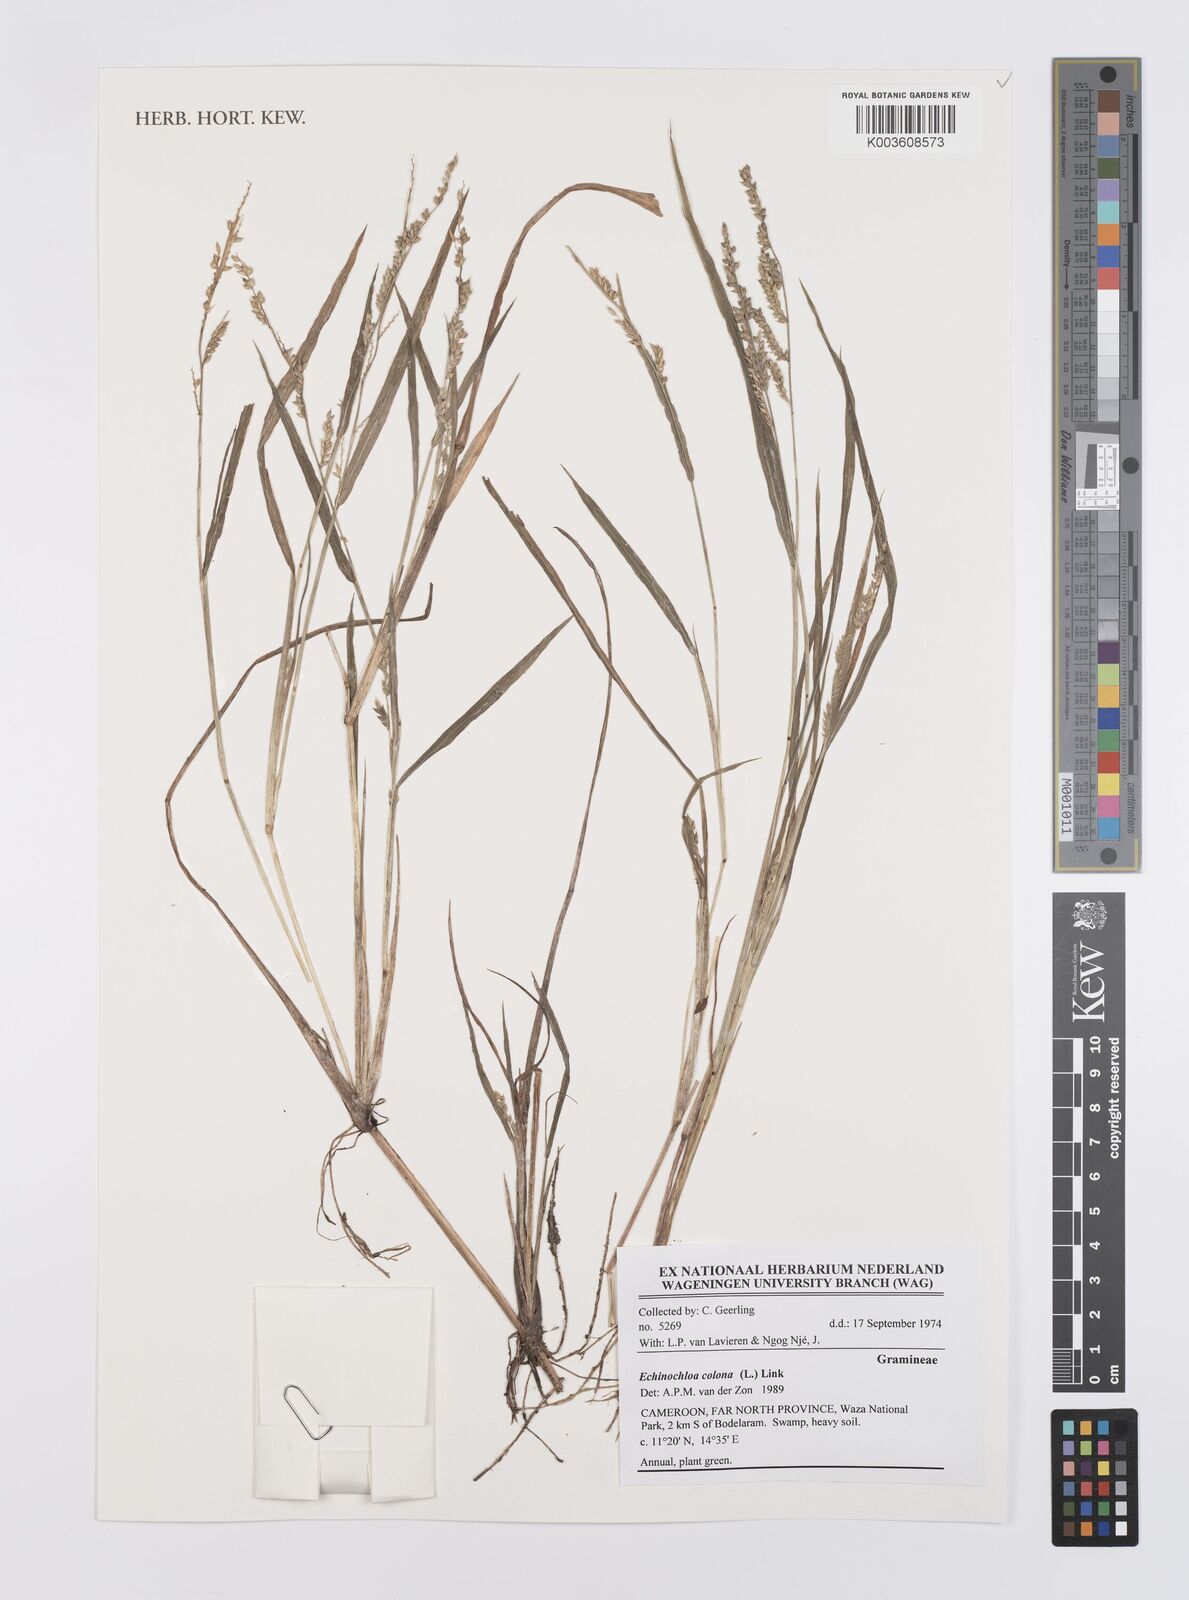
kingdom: Plantae
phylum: Tracheophyta
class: Liliopsida
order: Poales
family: Poaceae
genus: Echinochloa
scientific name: Echinochloa colonum
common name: Jungle rice
